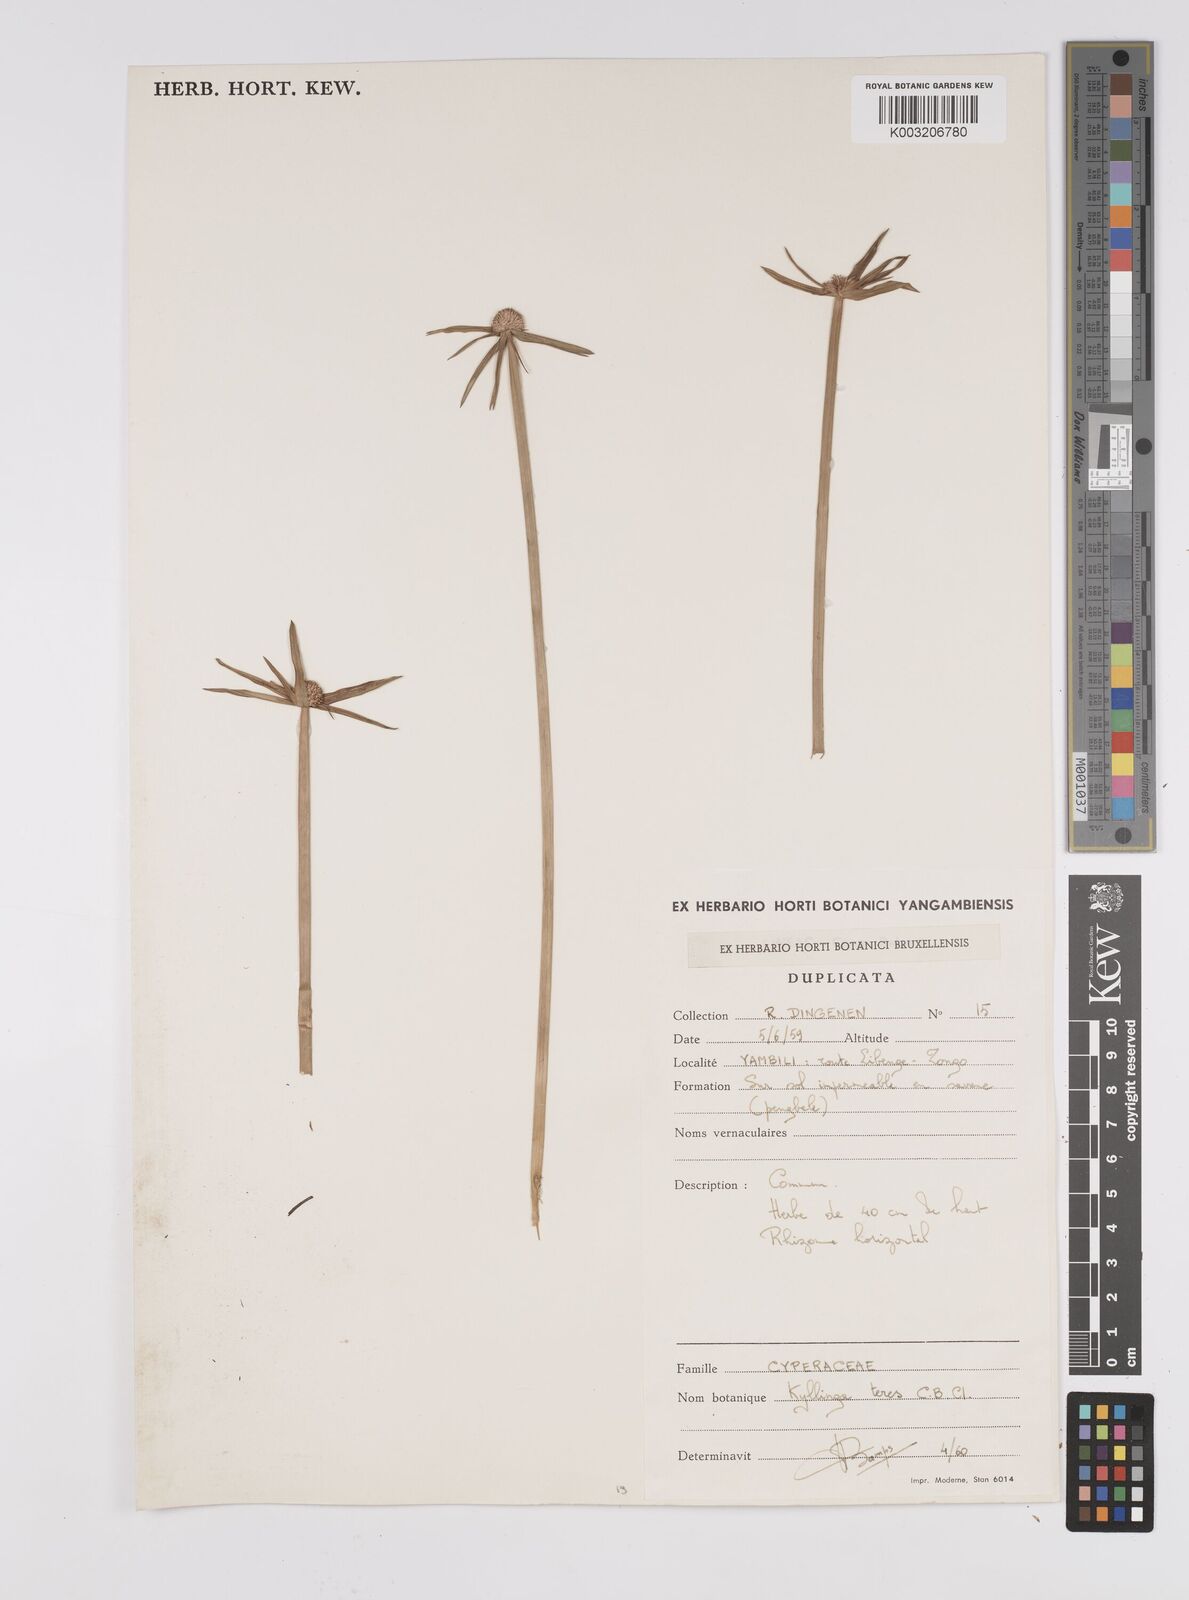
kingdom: Plantae
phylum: Tracheophyta
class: Liliopsida
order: Poales
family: Cyperaceae
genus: Cyperus
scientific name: Cyperus
